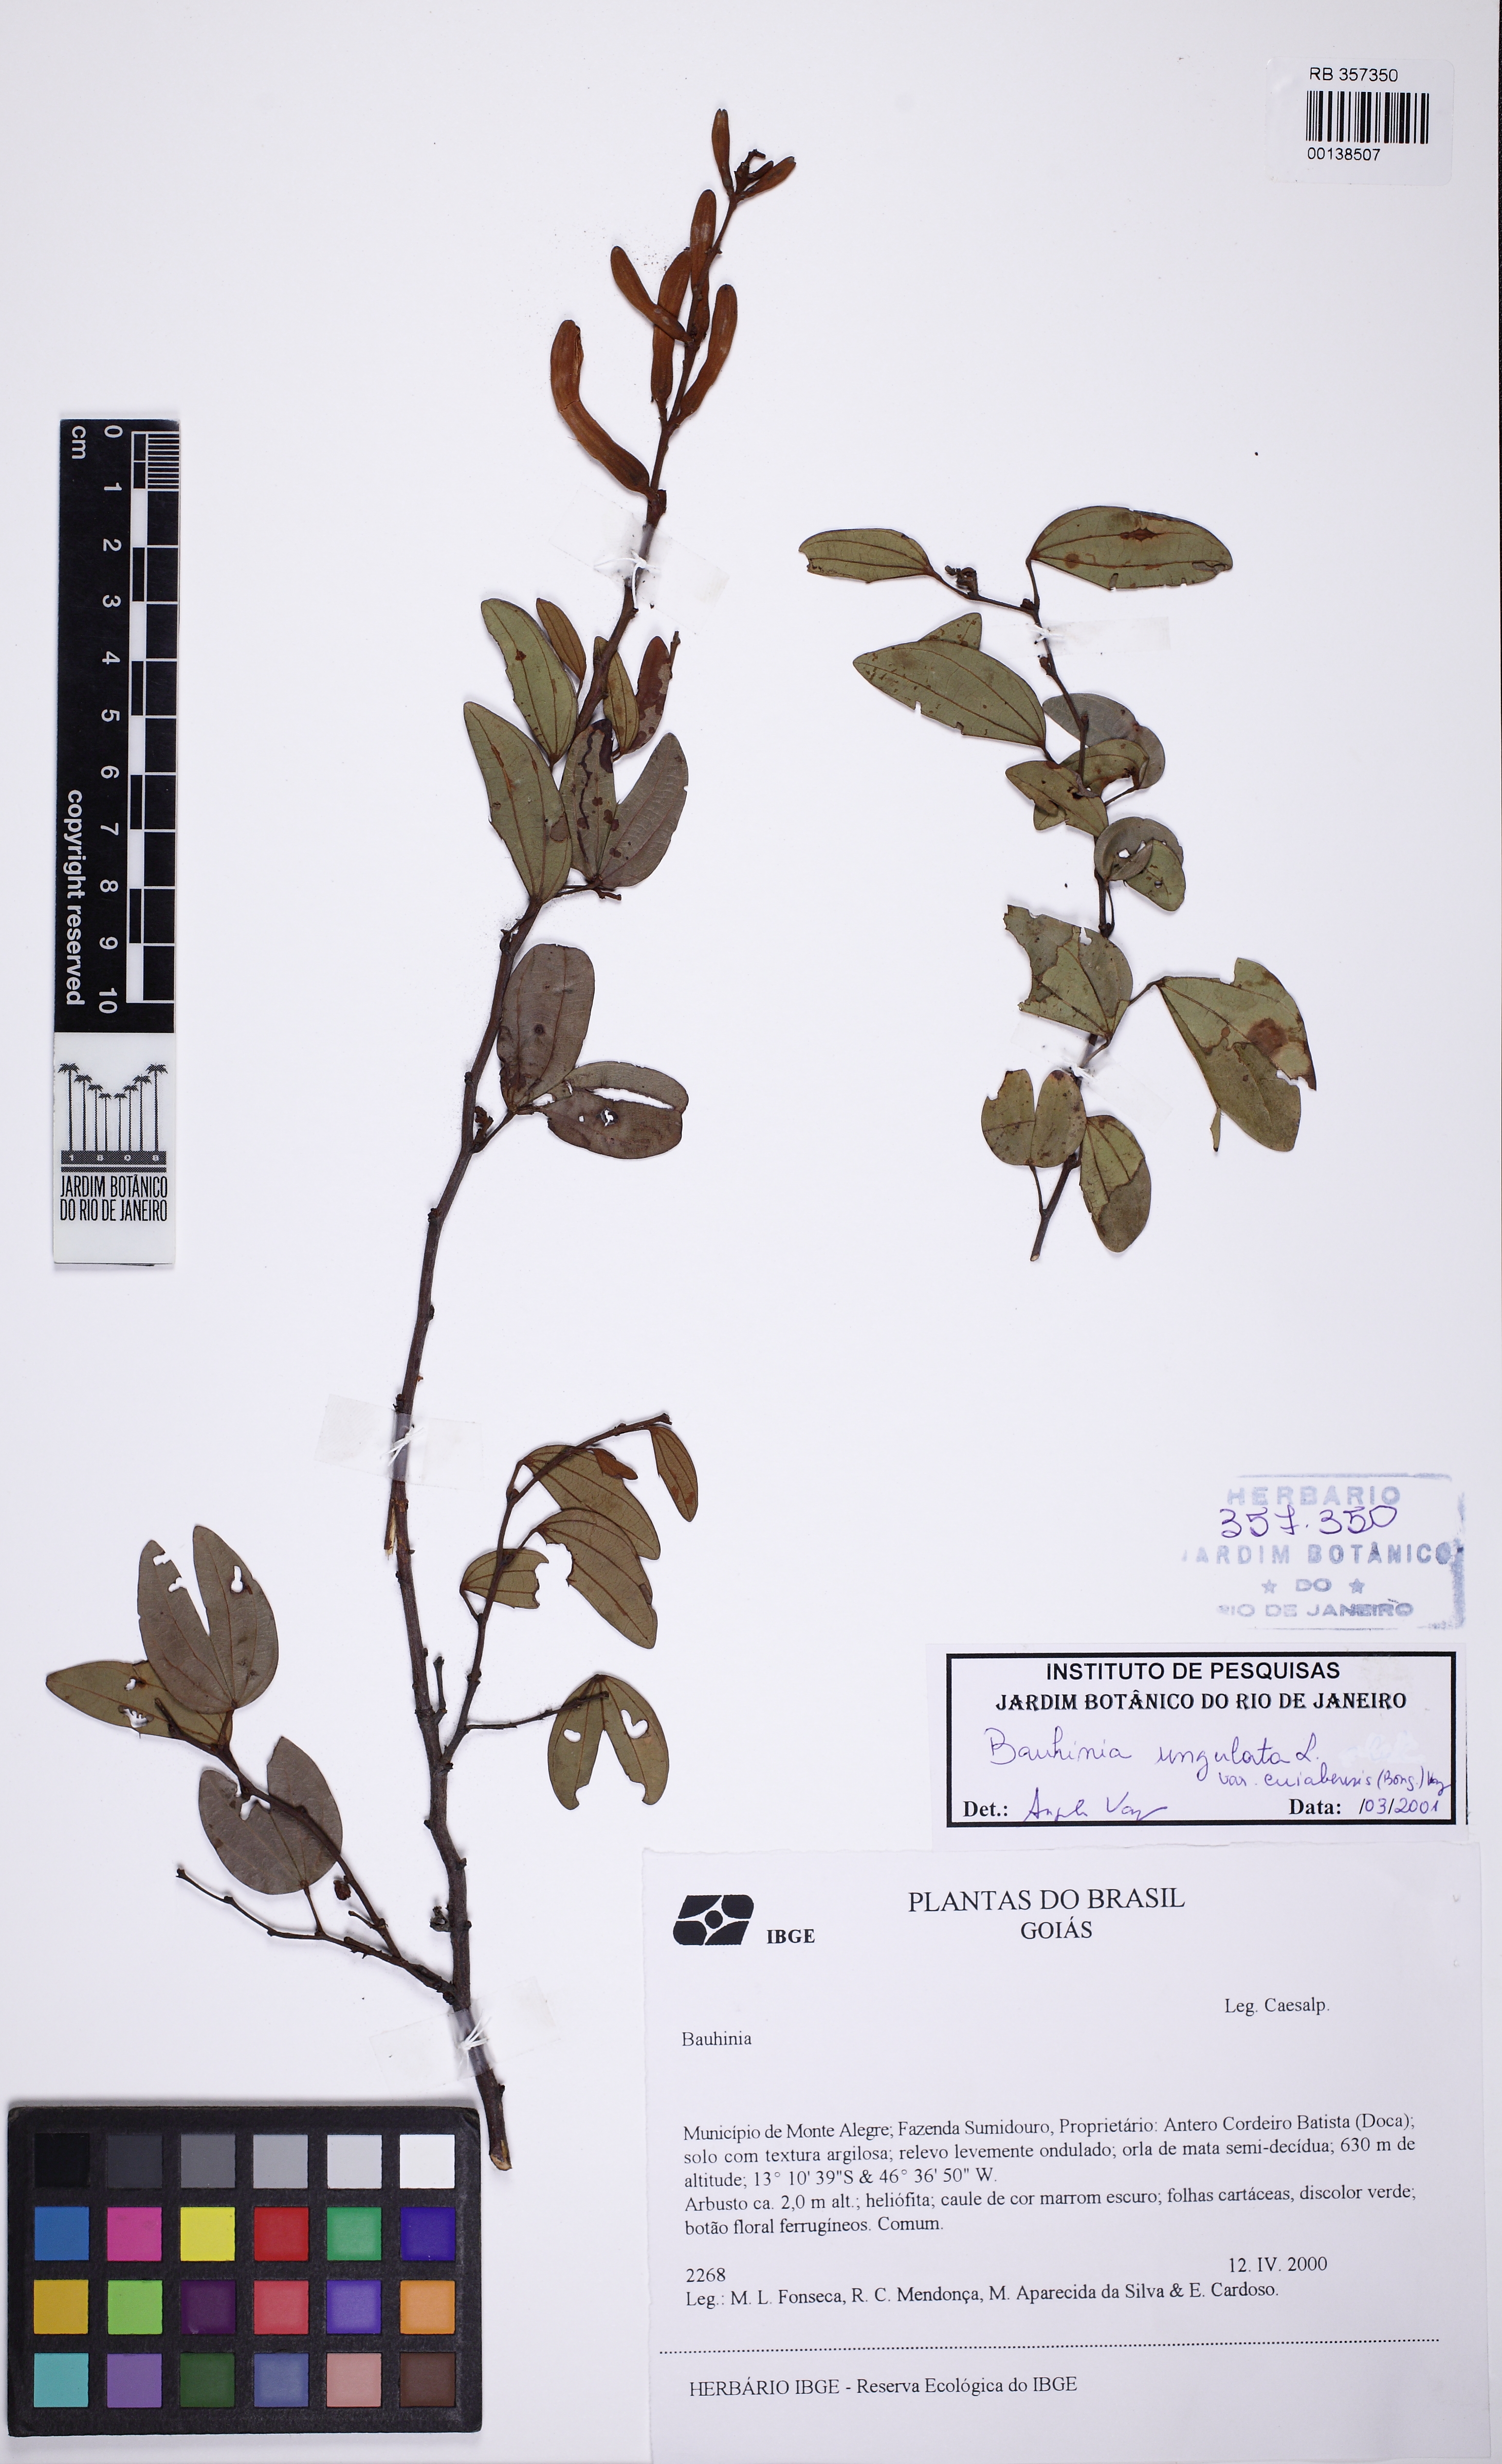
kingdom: Plantae
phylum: Tracheophyta
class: Magnoliopsida
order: Fabales
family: Fabaceae
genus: Bauhinia
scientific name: Bauhinia ungulata
